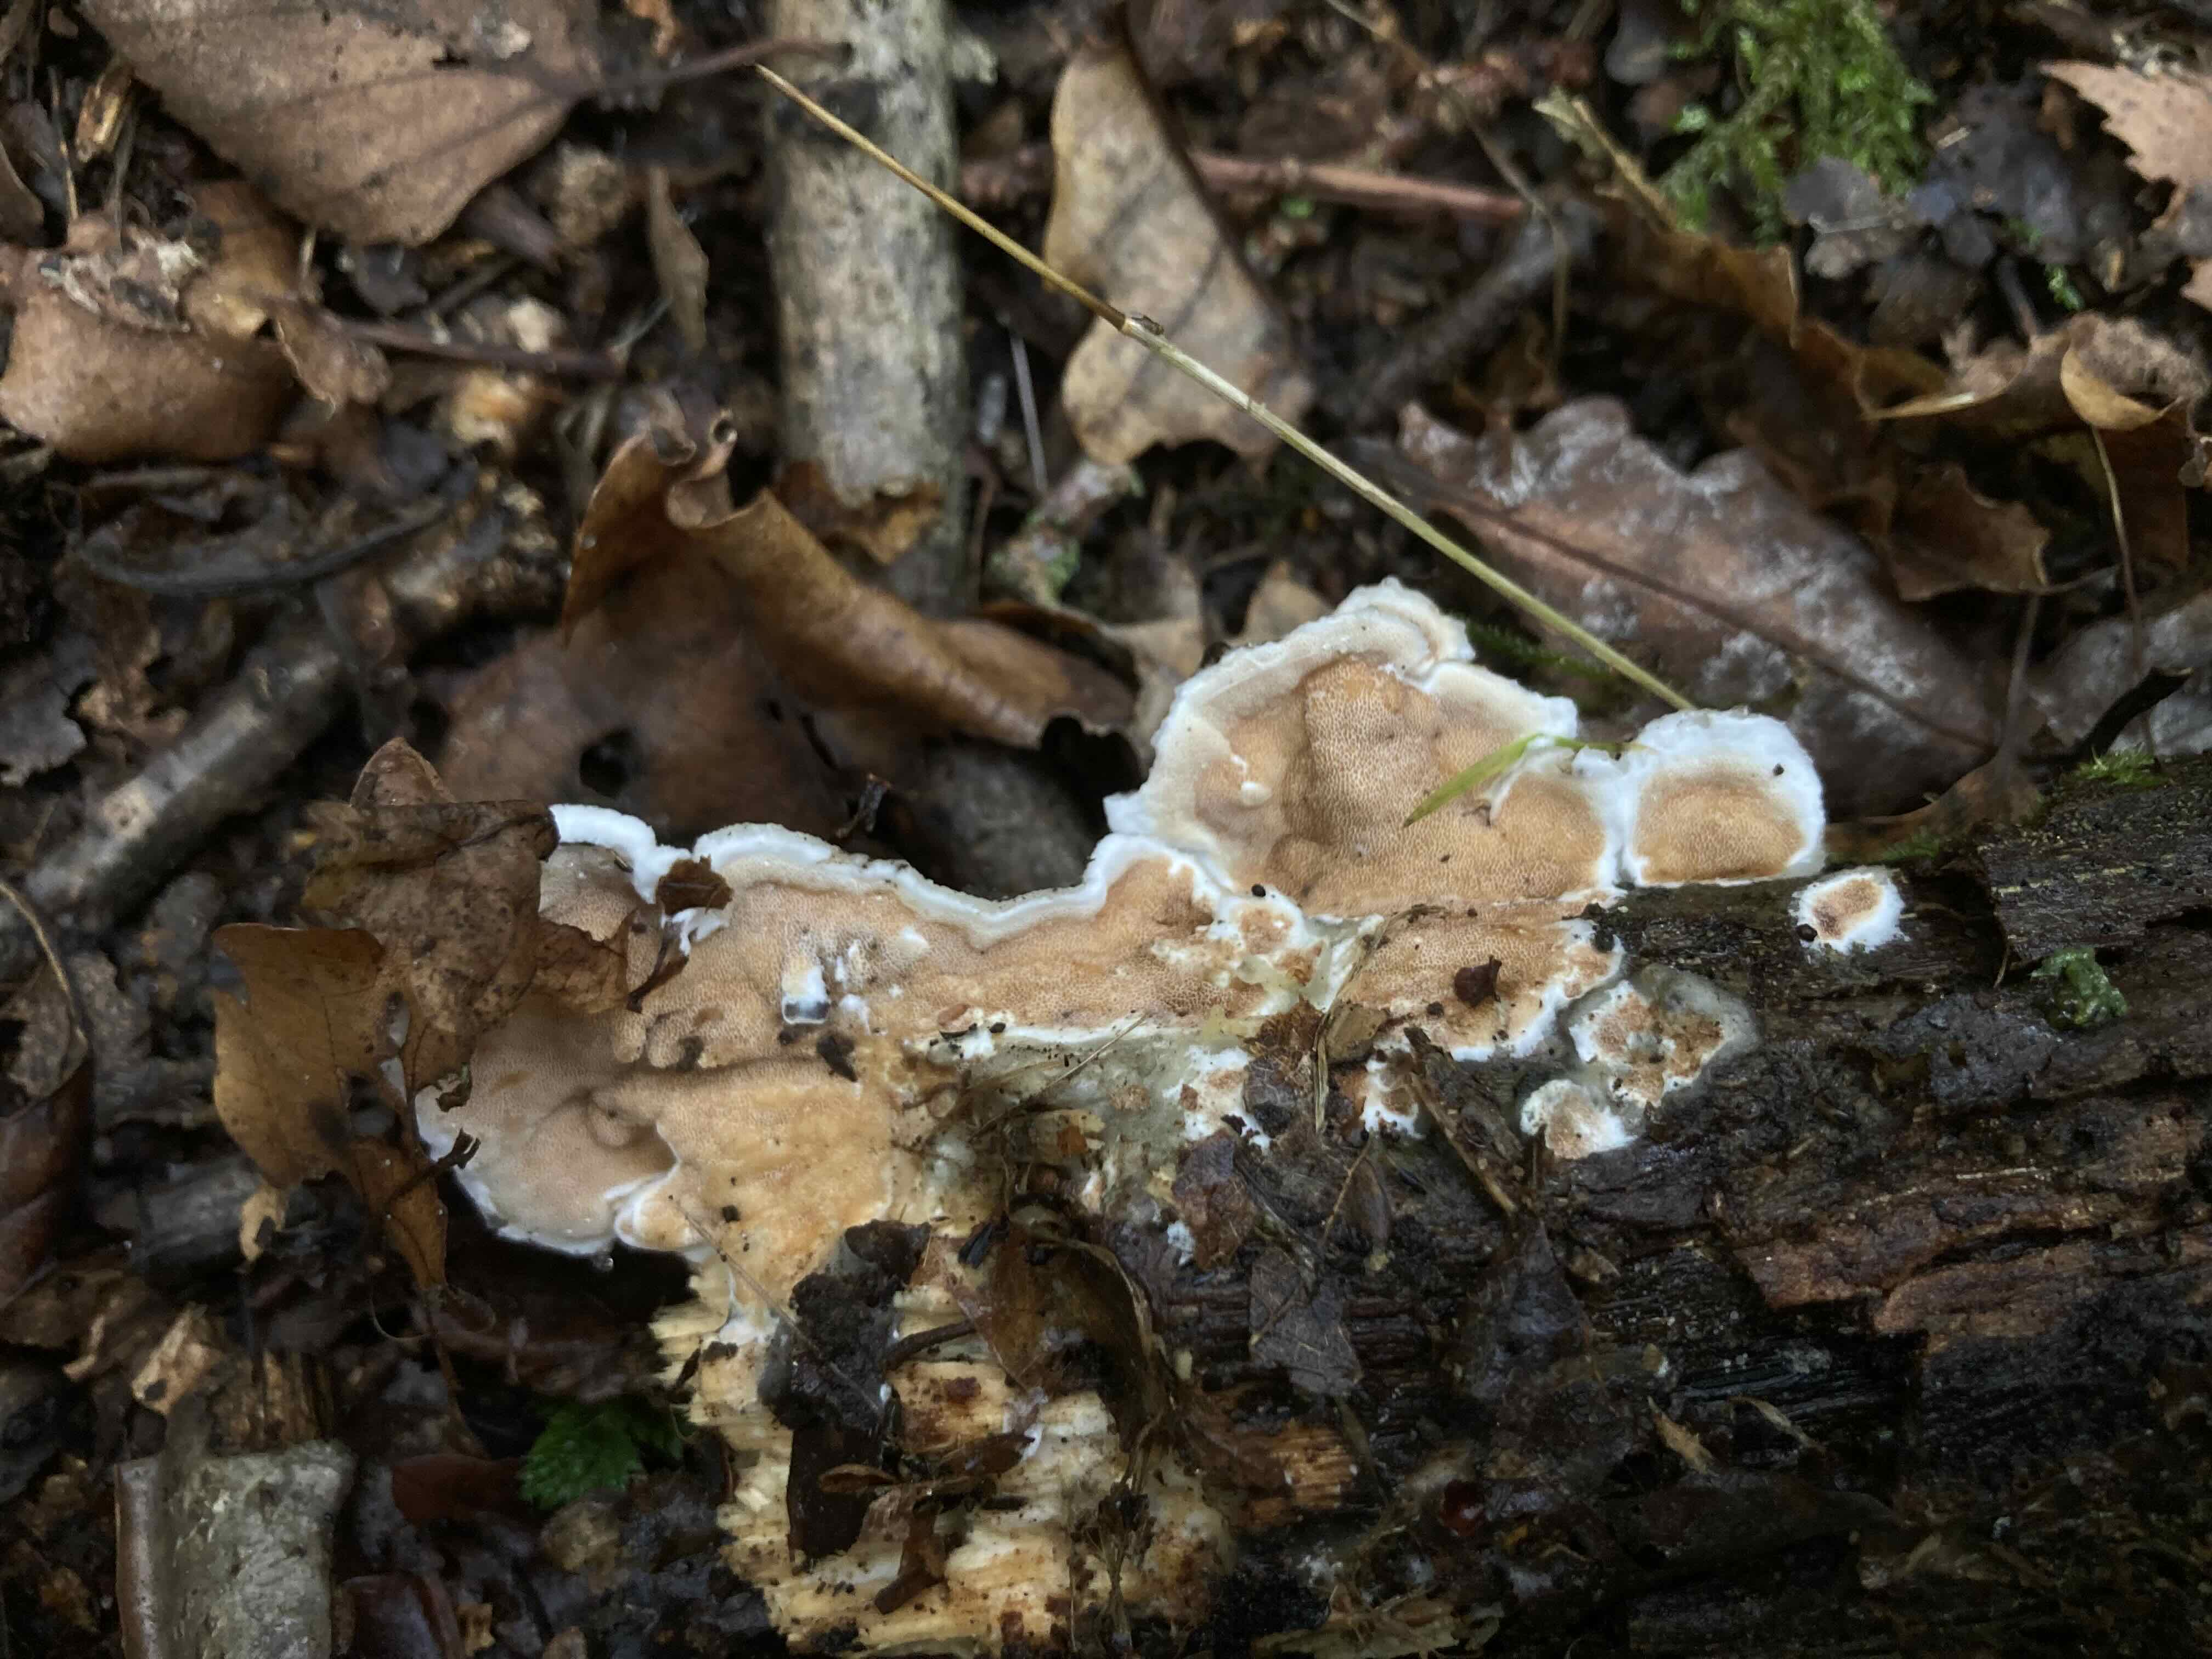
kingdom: Fungi
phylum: Basidiomycota
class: Agaricomycetes
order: Polyporales
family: Irpicaceae
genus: Vitreoporus
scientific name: Vitreoporus dichrous
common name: tofarvet foldporesvamp
